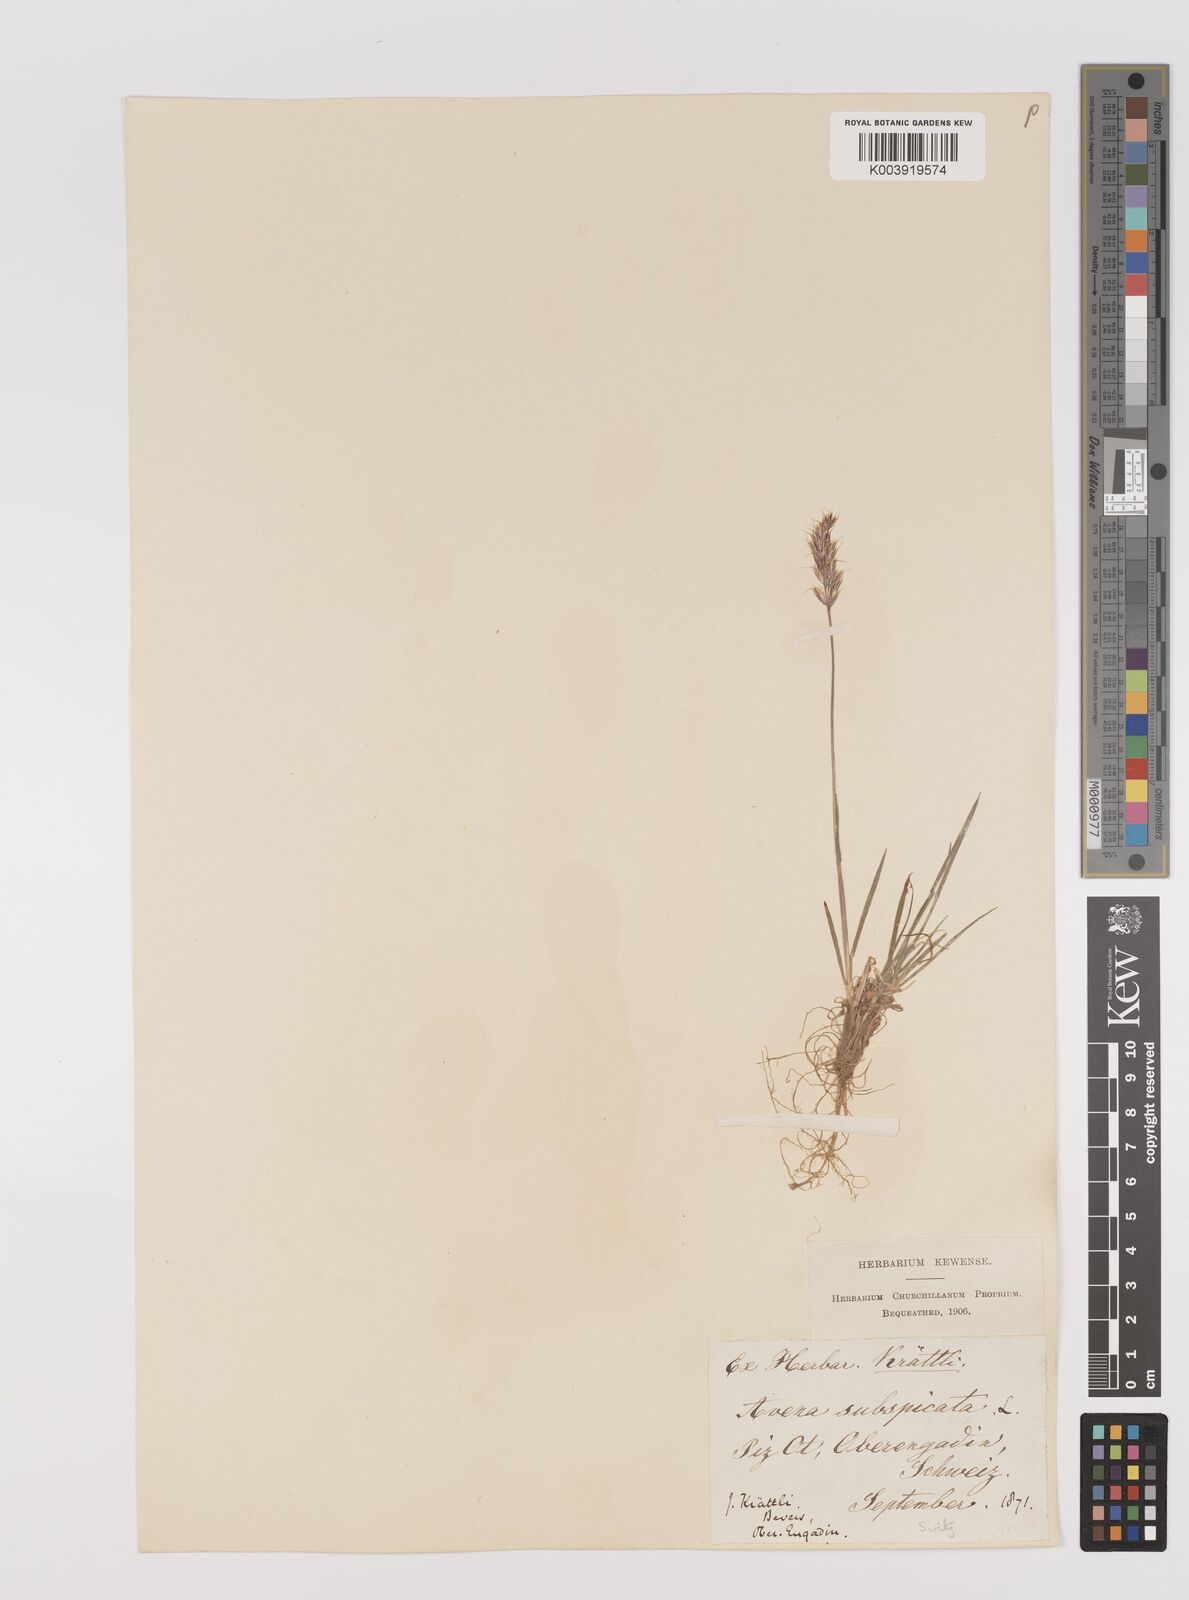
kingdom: Plantae
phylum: Tracheophyta
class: Liliopsida
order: Poales
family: Poaceae
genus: Koeleria
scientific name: Koeleria spicata
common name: Mountain trisetum
